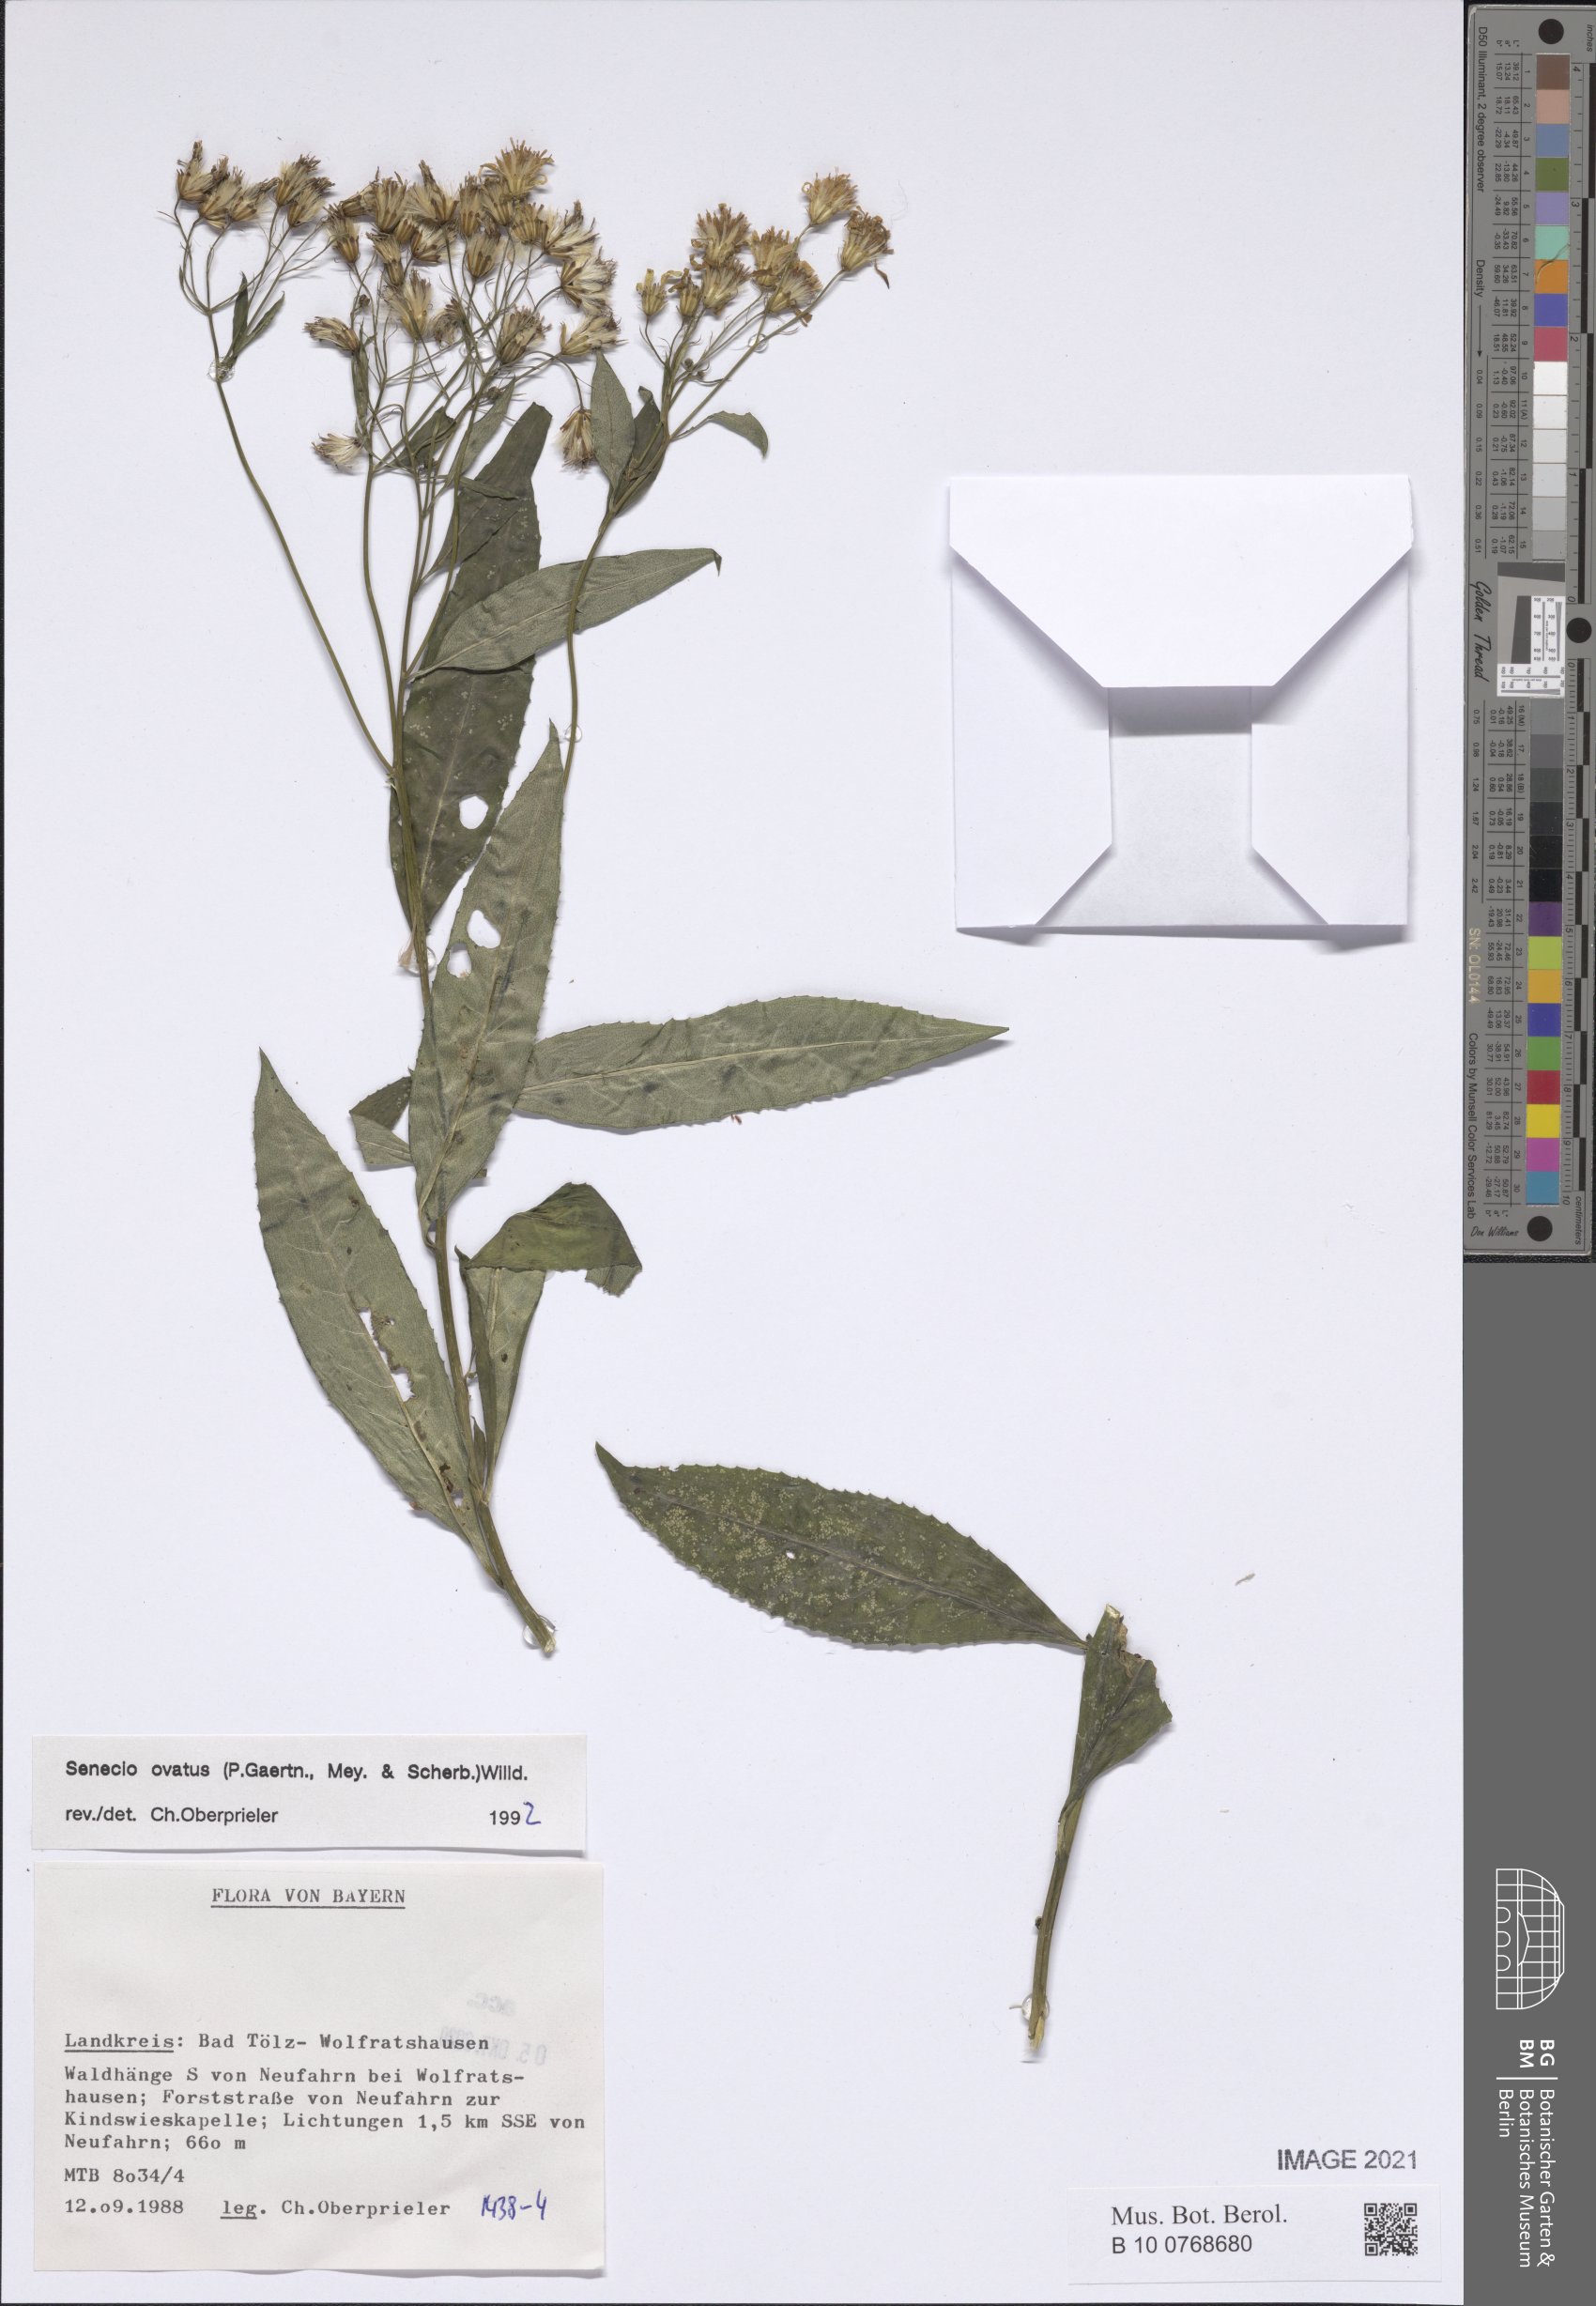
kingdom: Plantae
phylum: Tracheophyta
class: Magnoliopsida
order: Asterales
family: Asteraceae
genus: Senecio
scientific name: Senecio ovatus
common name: Wood ragwort
